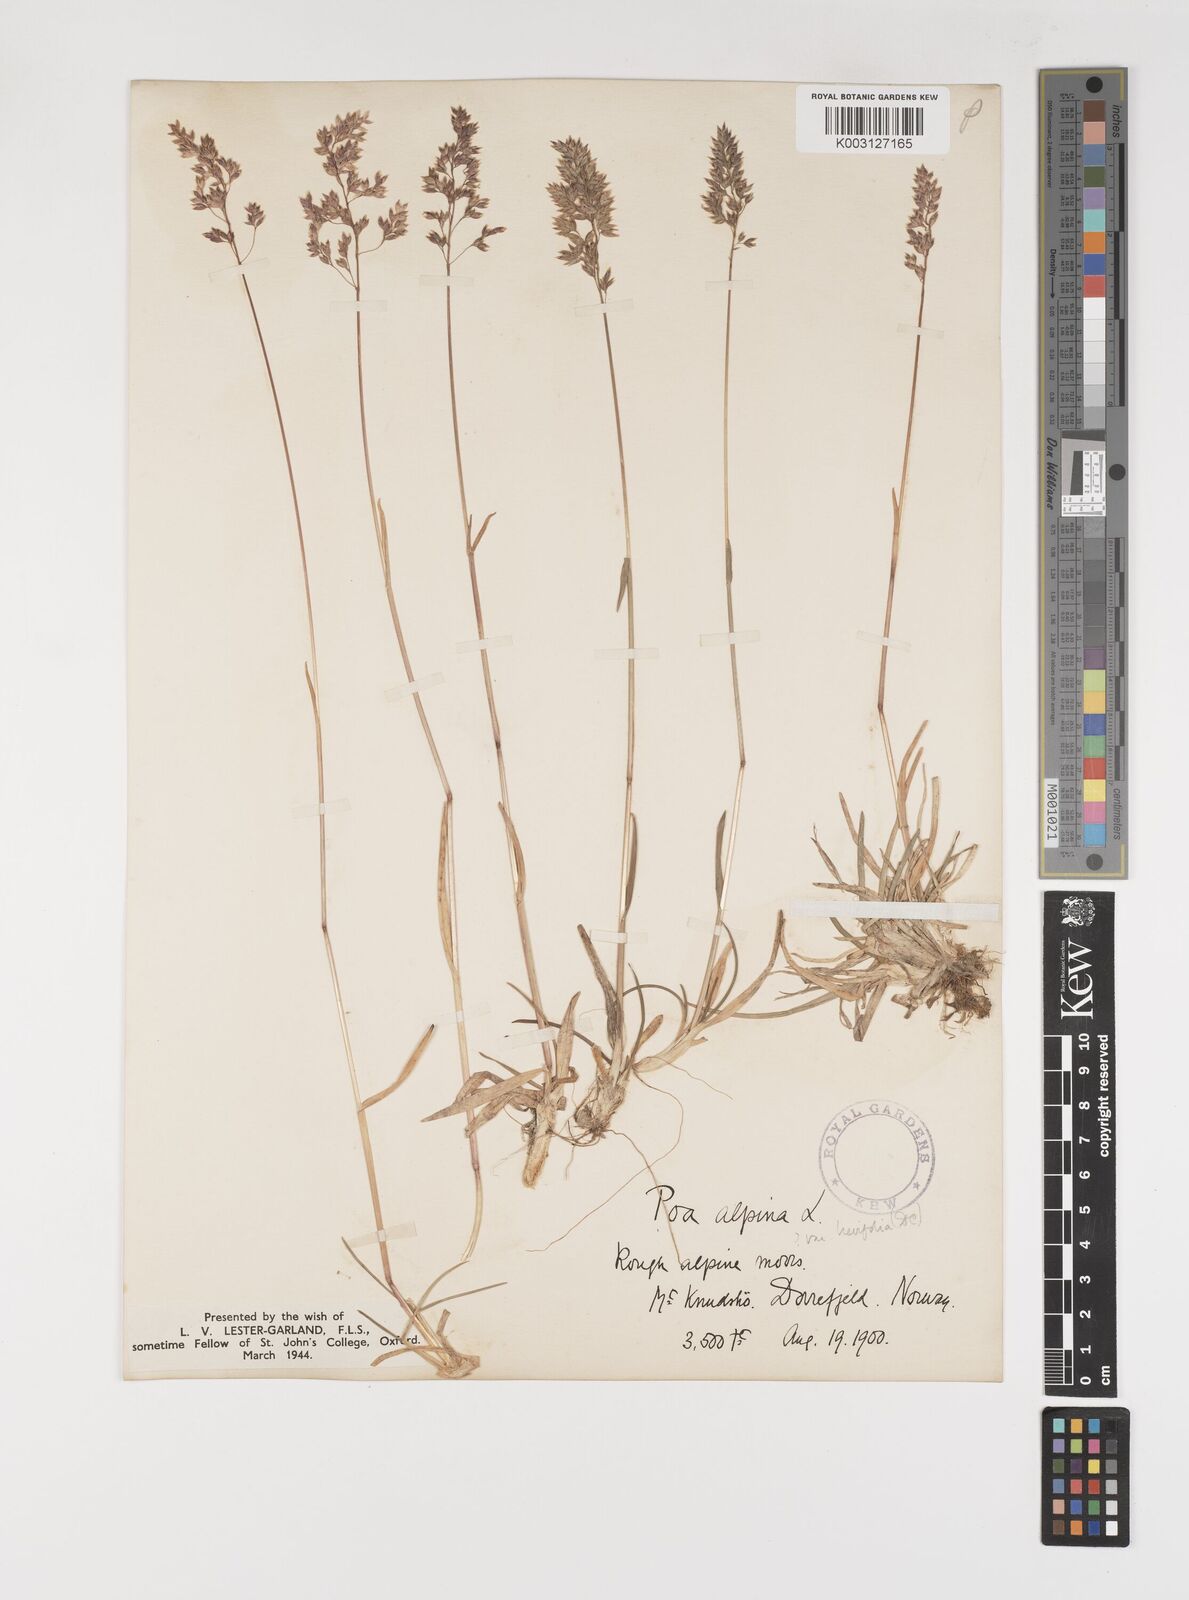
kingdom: Plantae
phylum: Tracheophyta
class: Liliopsida
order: Poales
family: Poaceae
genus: Poa
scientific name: Poa alpina
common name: Alpine bluegrass
